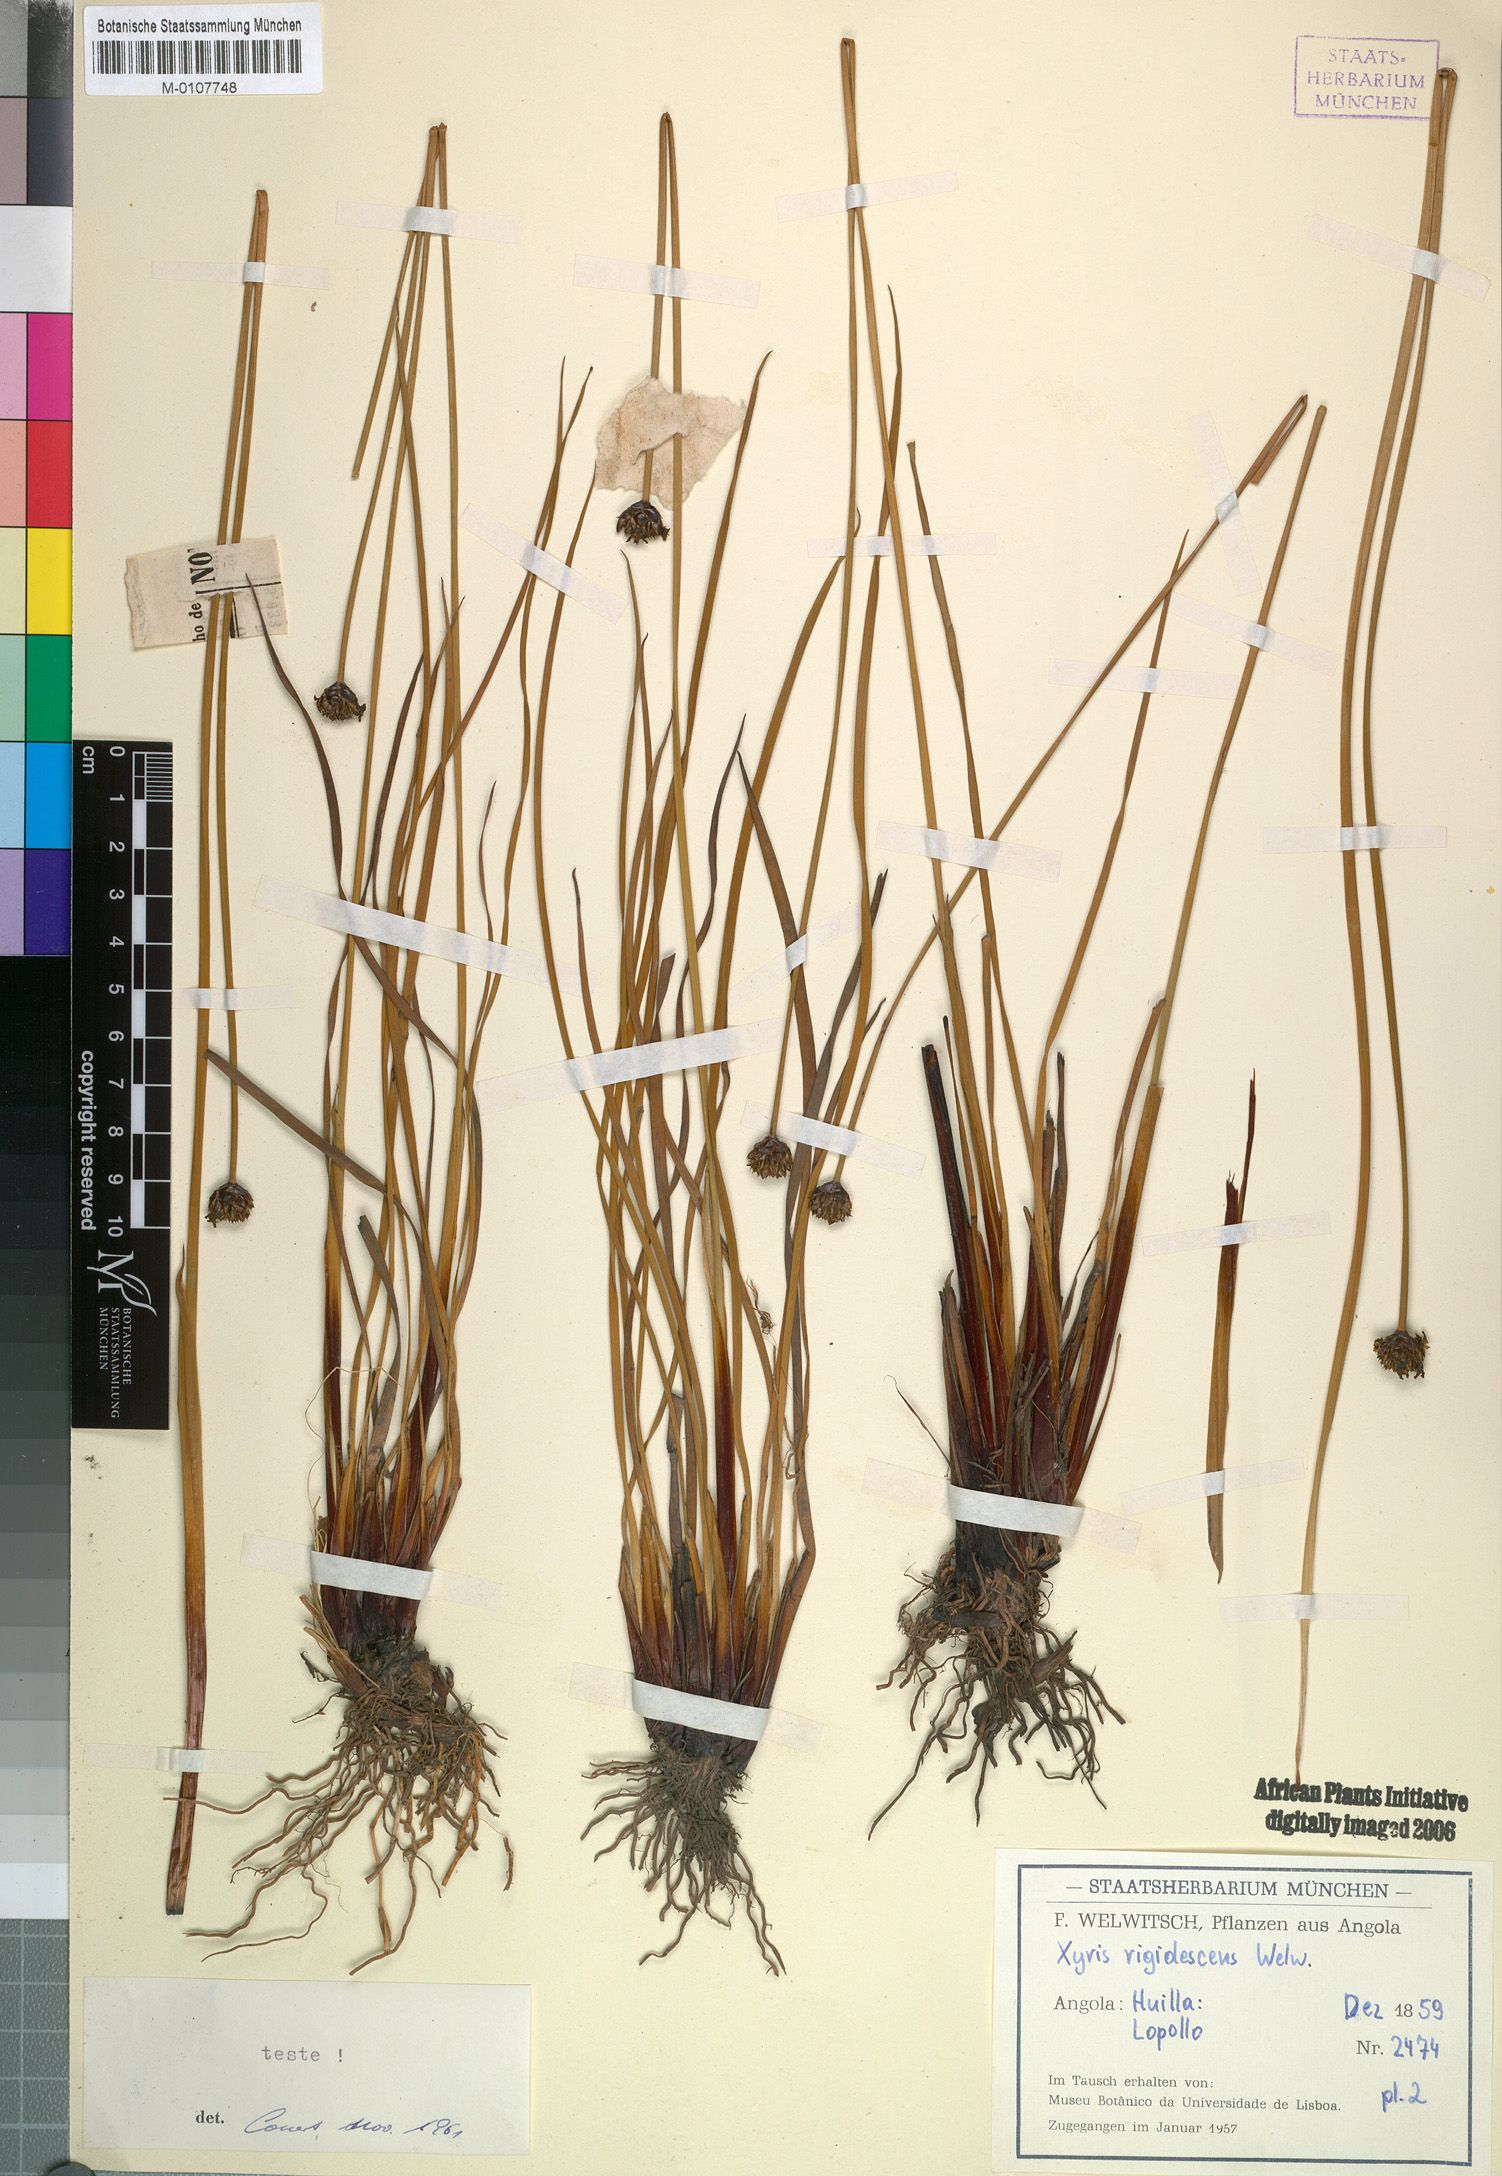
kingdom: Plantae
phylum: Tracheophyta
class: Liliopsida
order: Poales
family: Xyridaceae
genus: Xyris
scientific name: Xyris rehmannii
